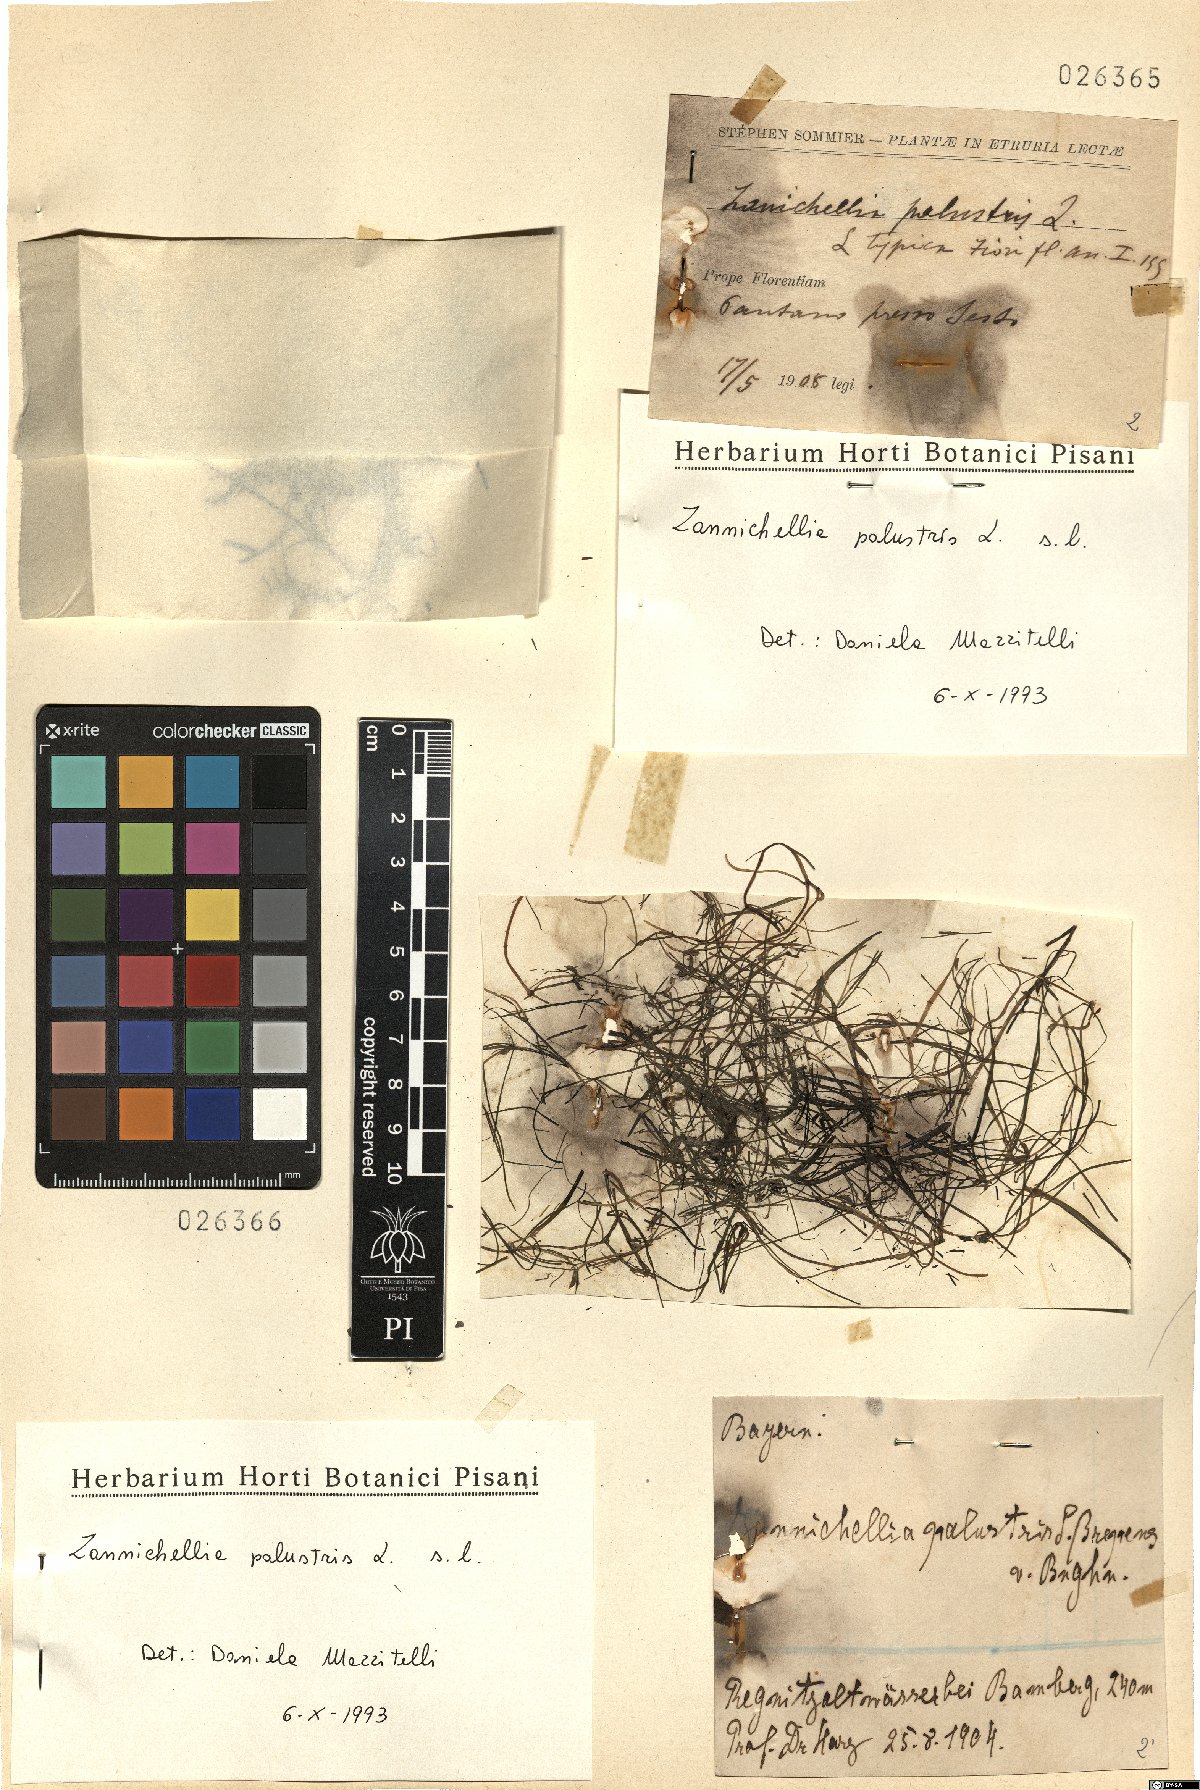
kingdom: Plantae
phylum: Tracheophyta
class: Liliopsida
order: Alismatales
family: Potamogetonaceae
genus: Zannichellia
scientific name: Zannichellia palustris
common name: Horned pondweed
